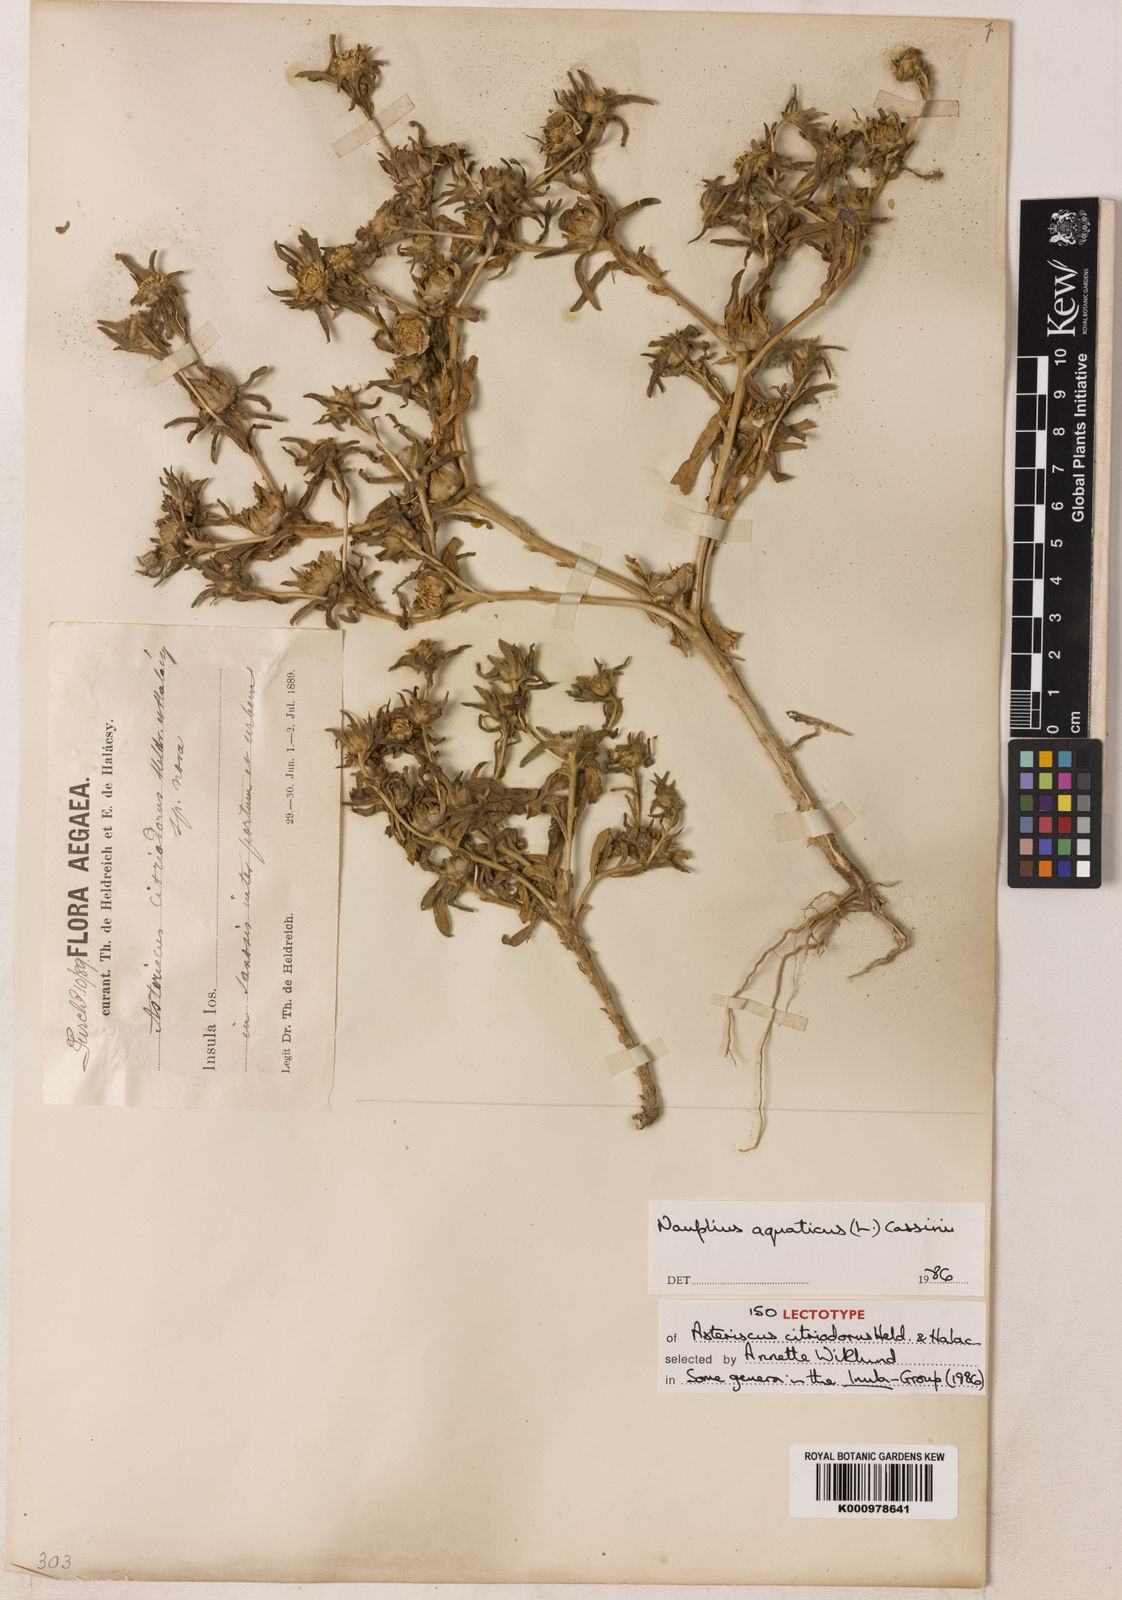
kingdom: Plantae
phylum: Tracheophyta
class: Magnoliopsida
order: Asterales
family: Asteraceae
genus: Asteriscus
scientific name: Asteriscus aquaticus
